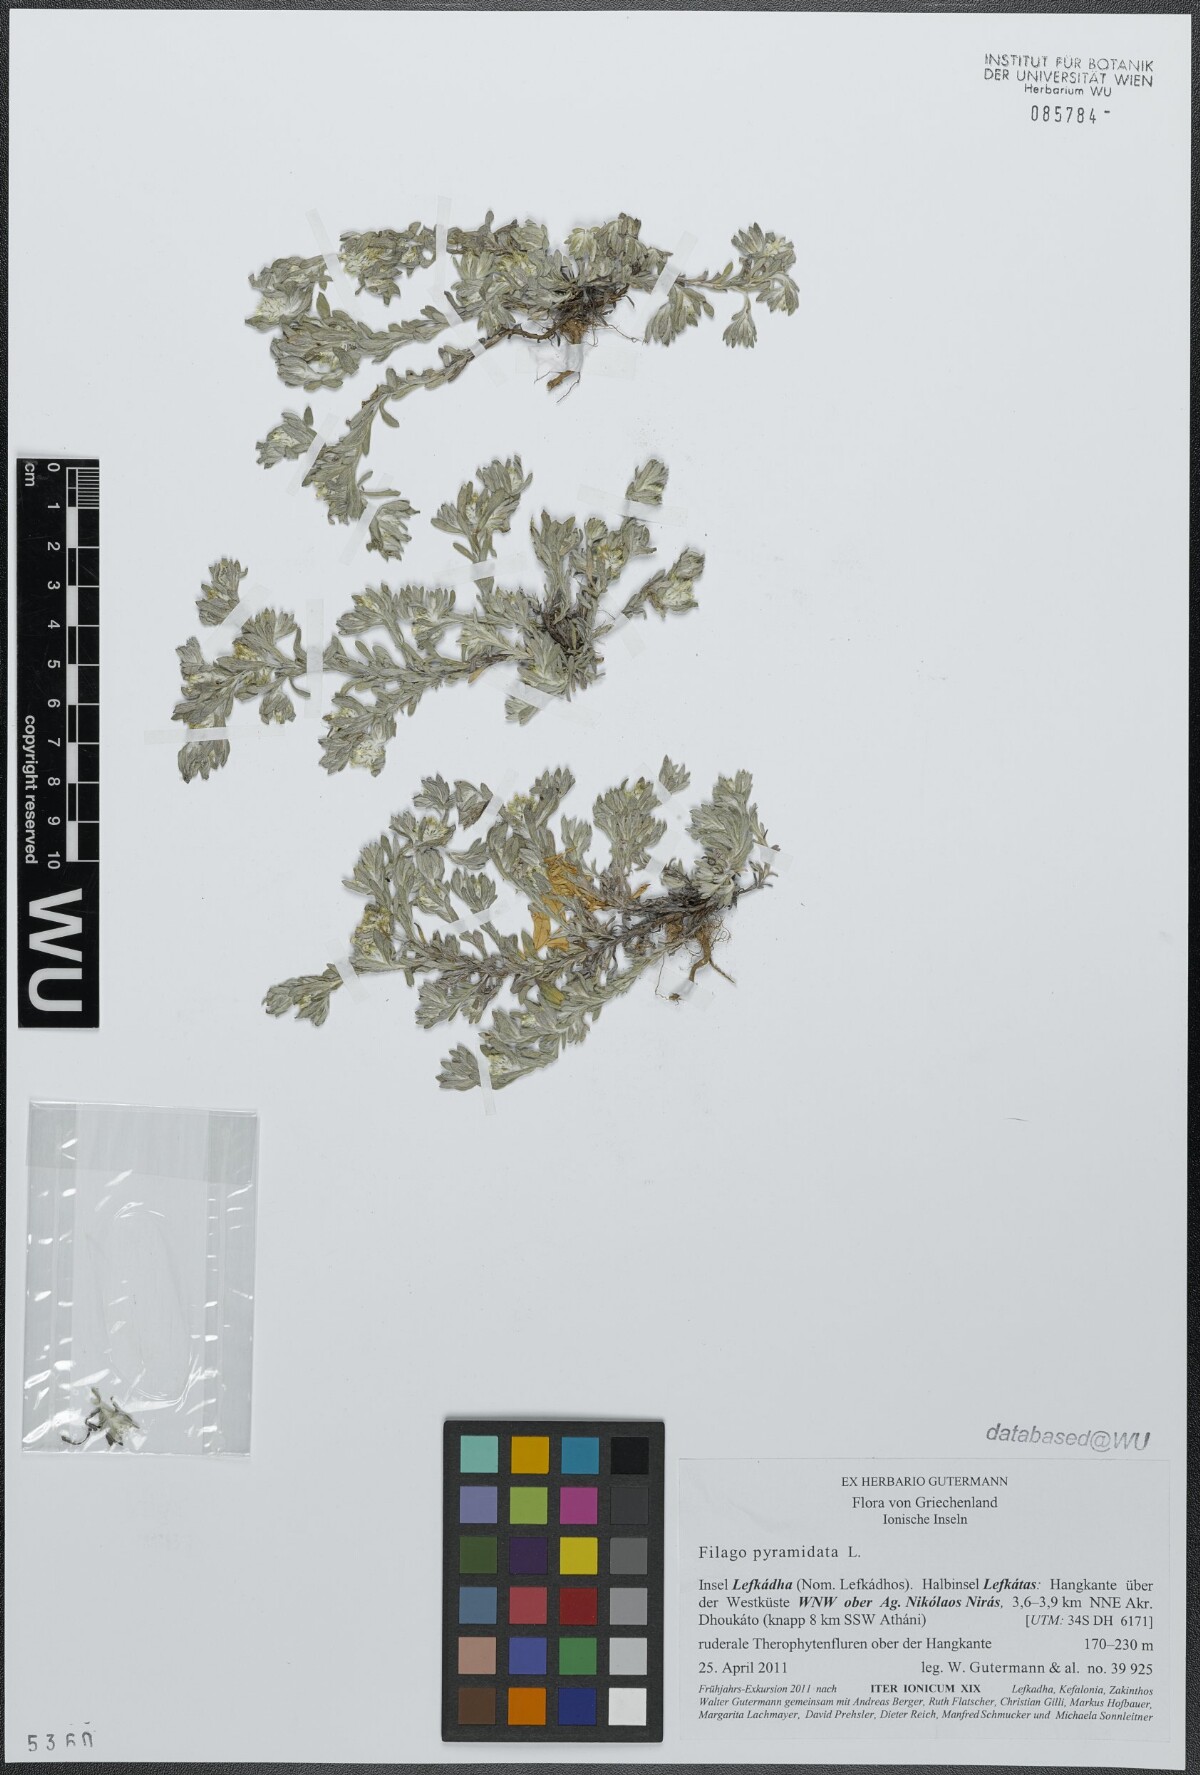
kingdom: Plantae
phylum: Tracheophyta
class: Magnoliopsida
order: Asterales
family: Asteraceae
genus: Filago
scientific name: Filago pyramidata
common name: Broad-leaved cudweed
